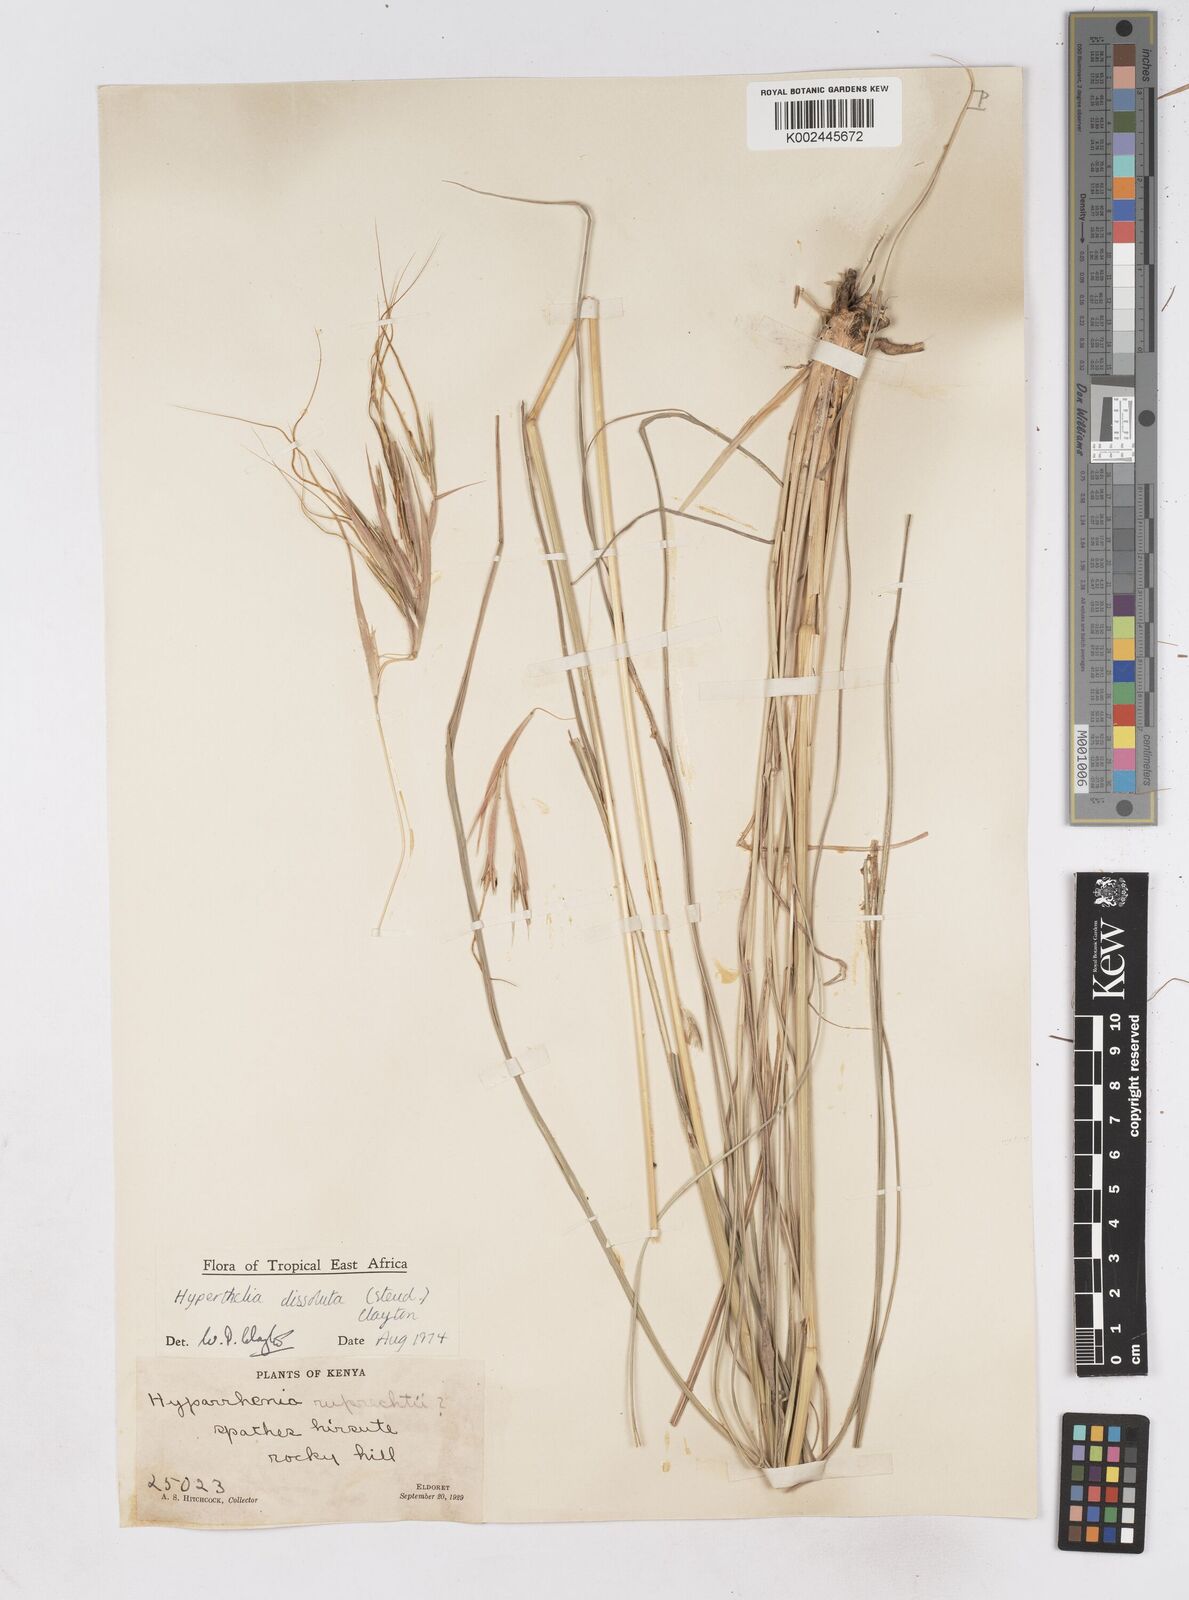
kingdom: Plantae
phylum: Tracheophyta
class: Liliopsida
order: Poales
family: Poaceae
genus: Hyperthelia
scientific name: Hyperthelia dissoluta
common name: Yellow thatching grass
